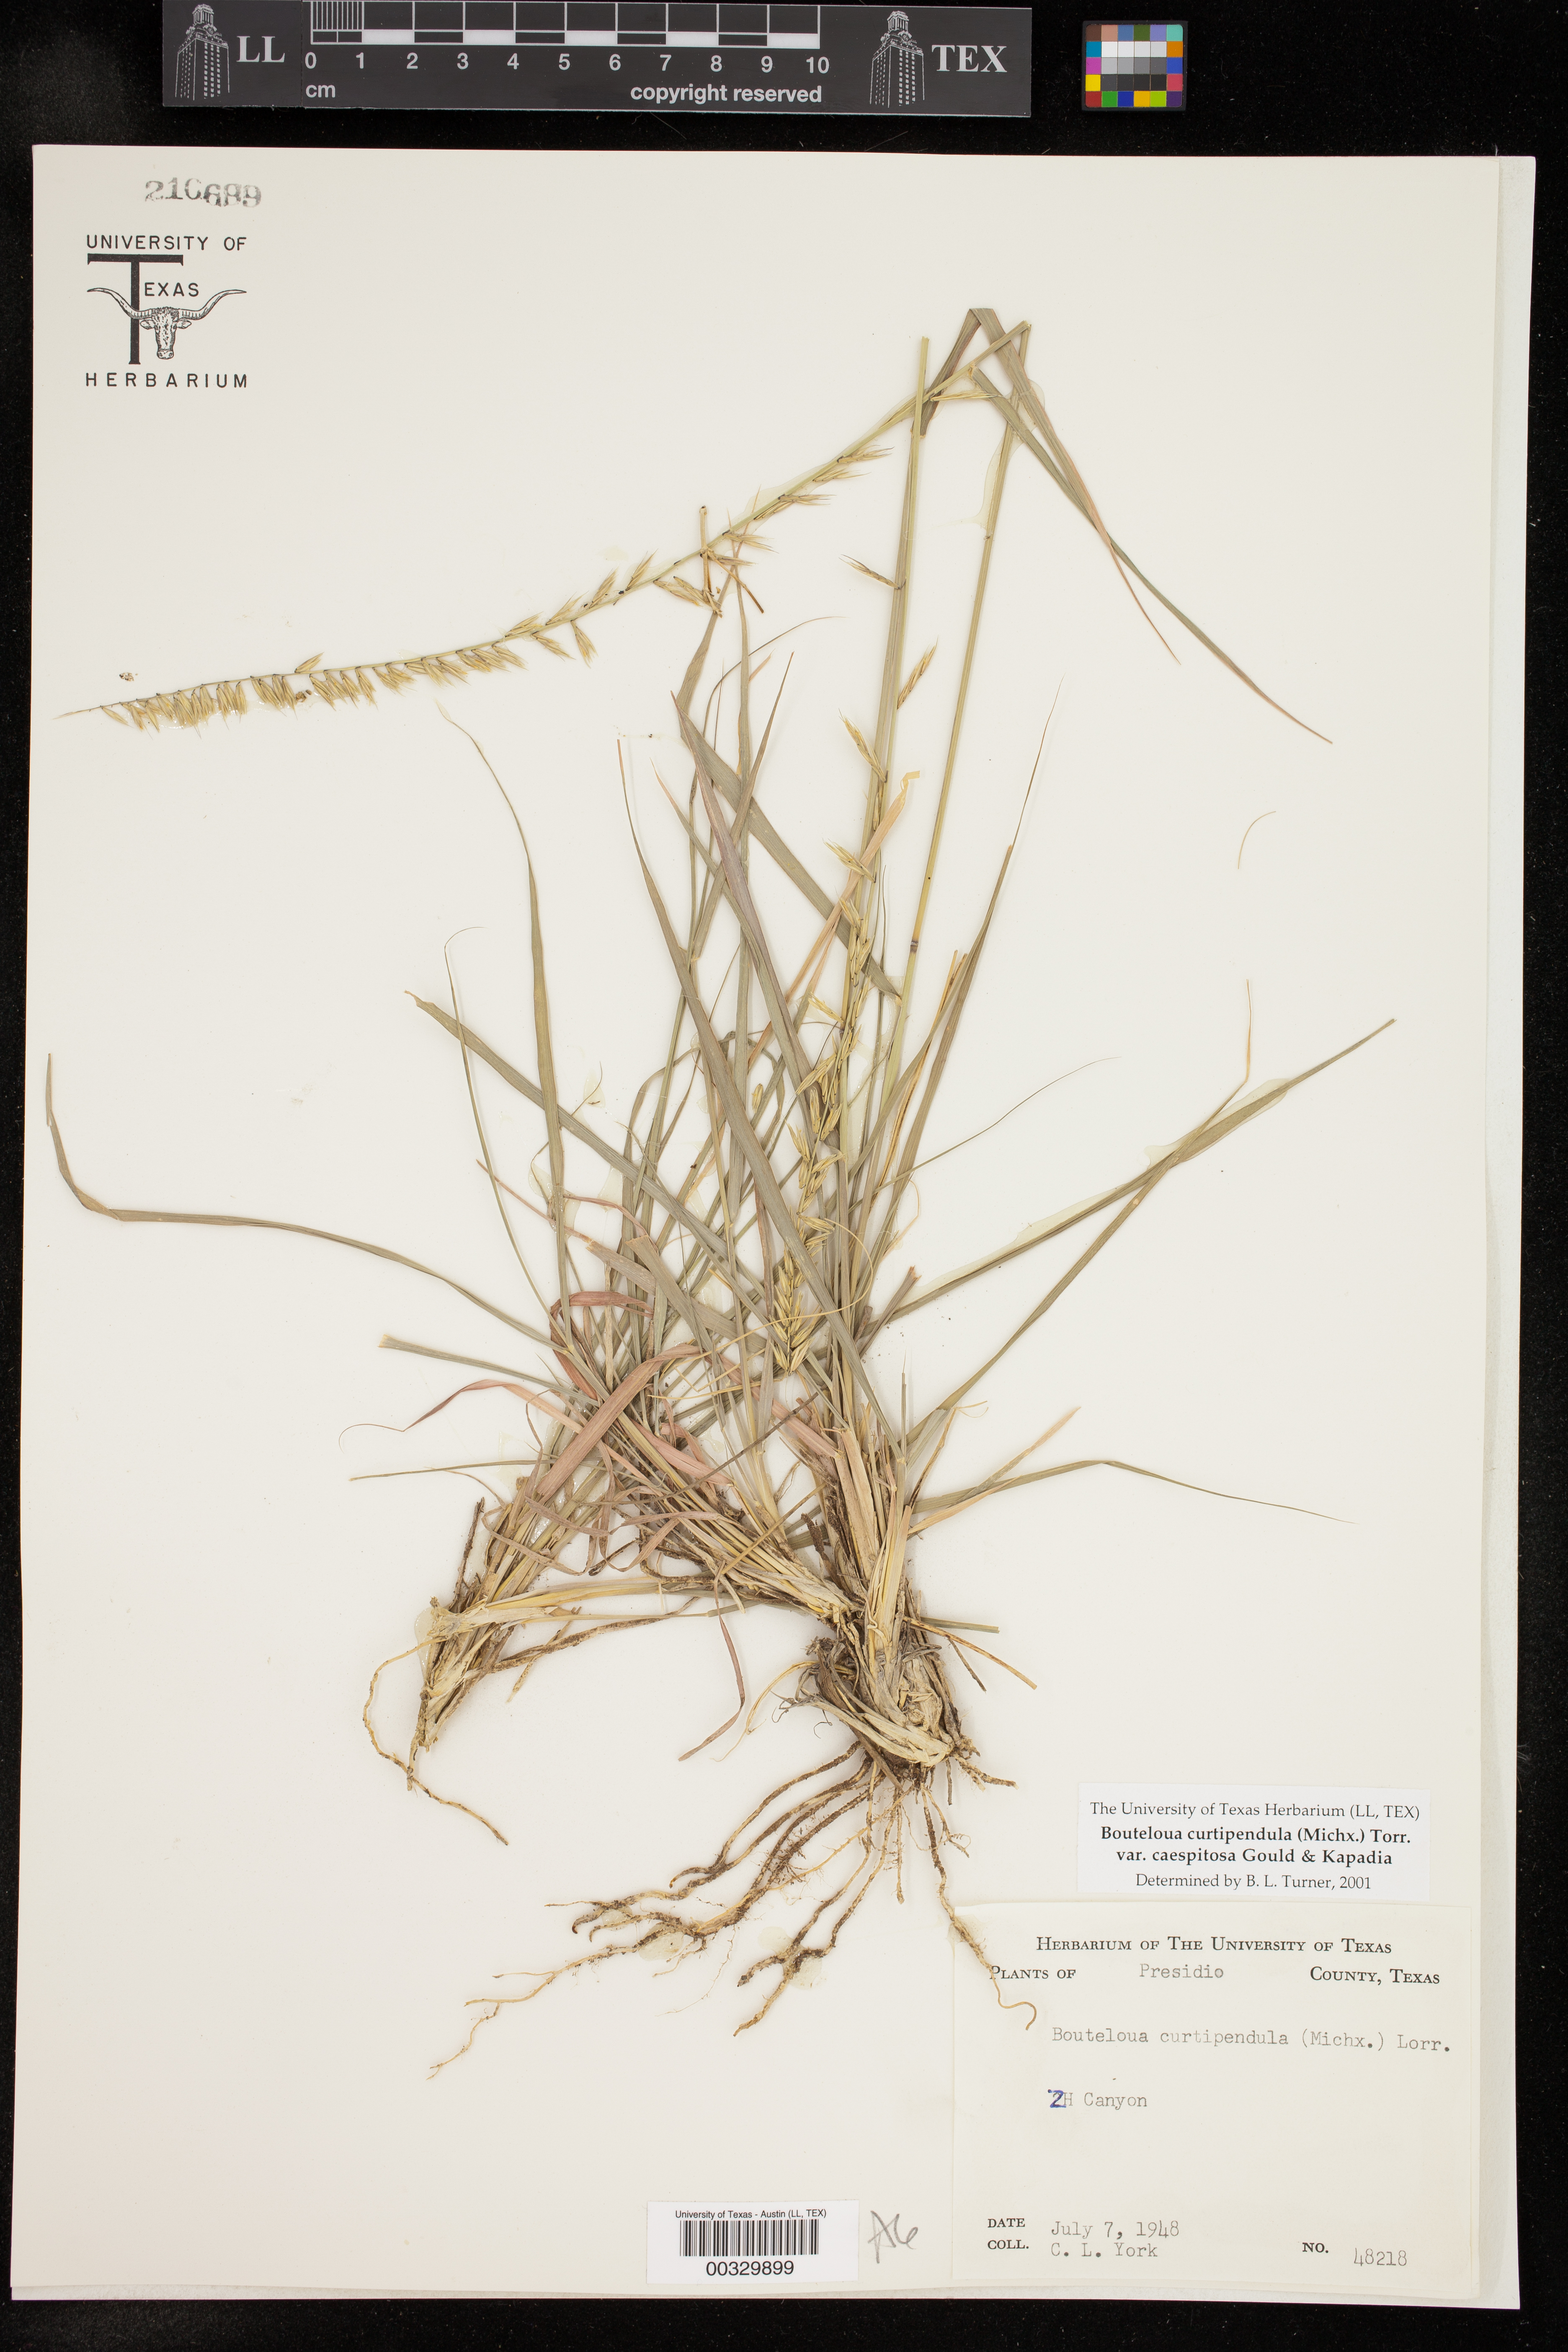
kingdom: Plantae
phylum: Tracheophyta
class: Liliopsida
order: Poales
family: Poaceae
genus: Bouteloua
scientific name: Bouteloua curtipendula
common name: Side-oats grama
